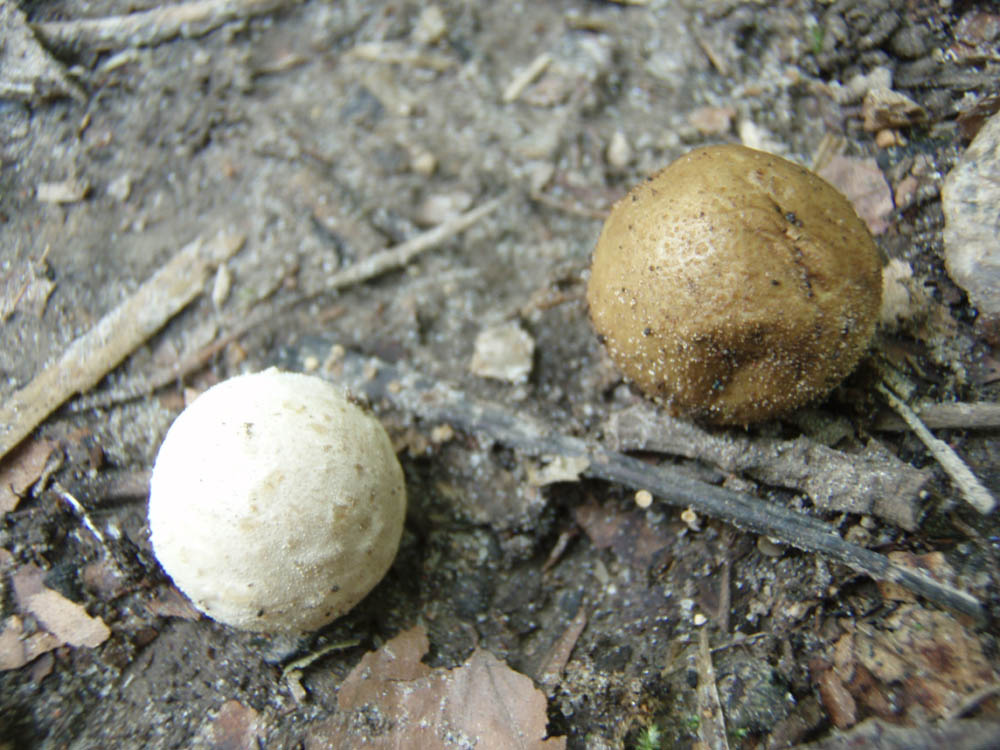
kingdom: Fungi
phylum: Basidiomycota
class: Agaricomycetes
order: Agaricales
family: Lycoperdaceae
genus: Bovista
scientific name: Bovista furfuracea
